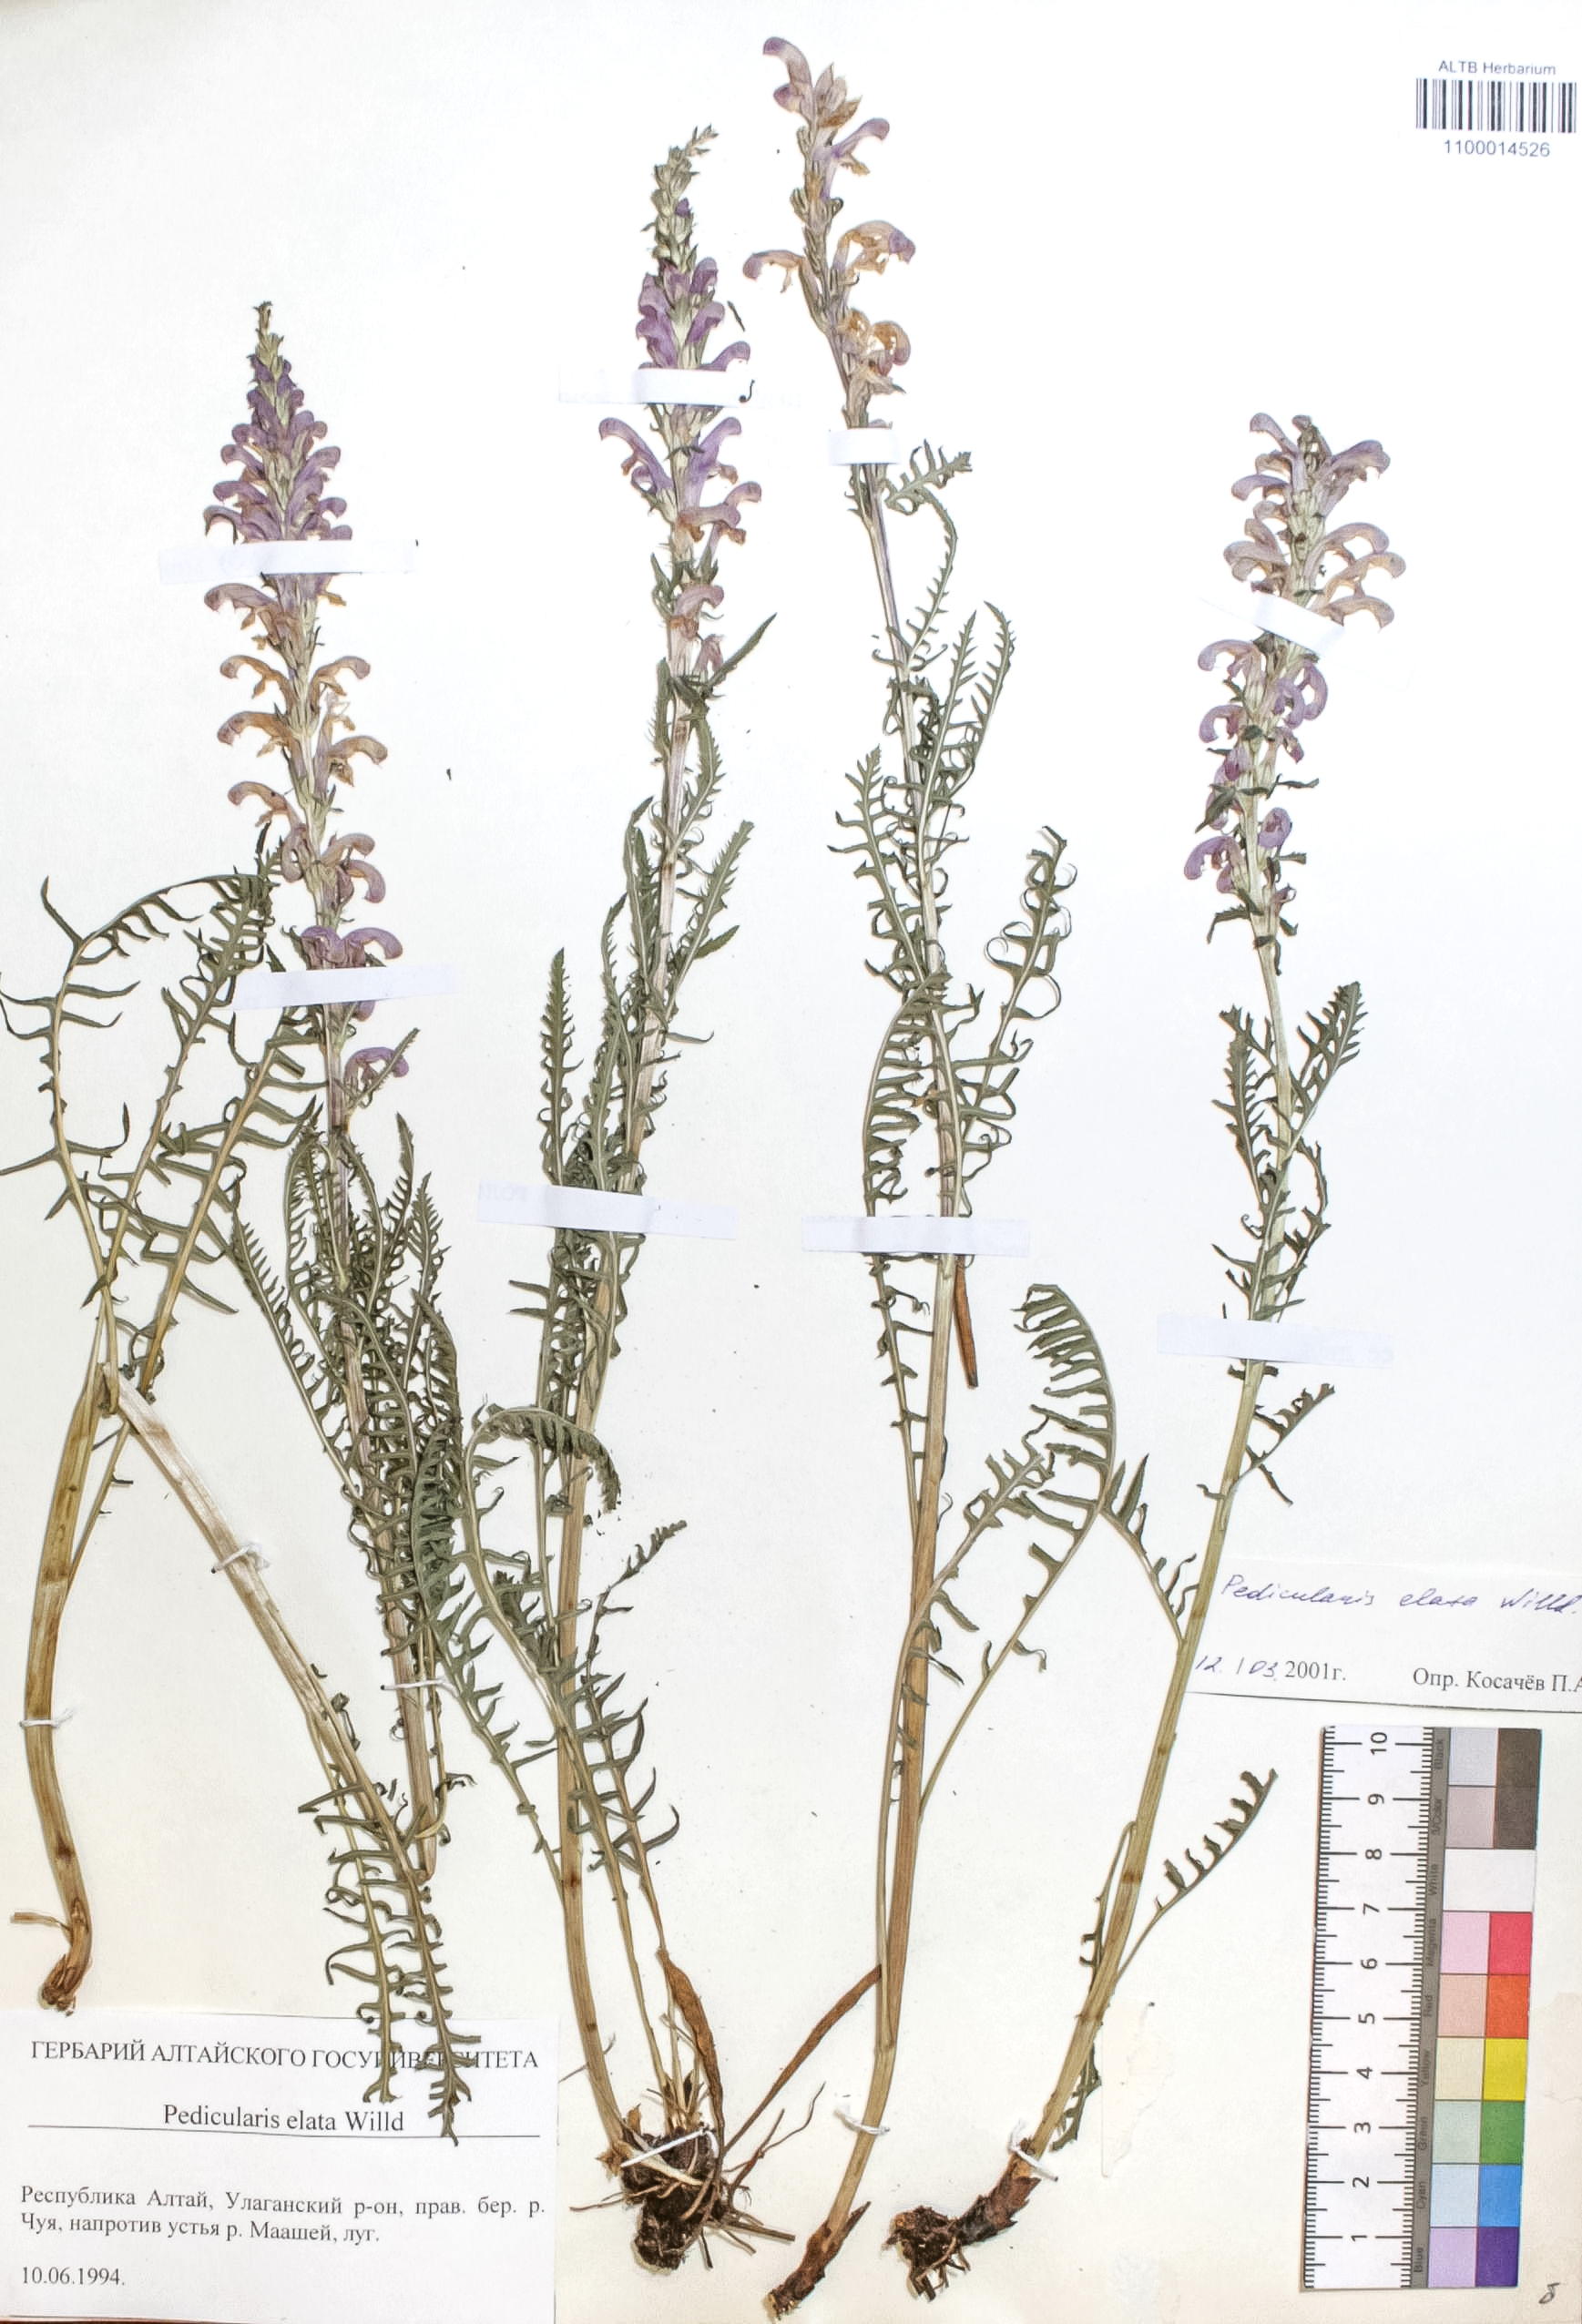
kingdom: Plantae
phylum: Tracheophyta
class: Magnoliopsida
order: Lamiales
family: Orobanchaceae
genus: Pedicularis
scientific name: Pedicularis elata
